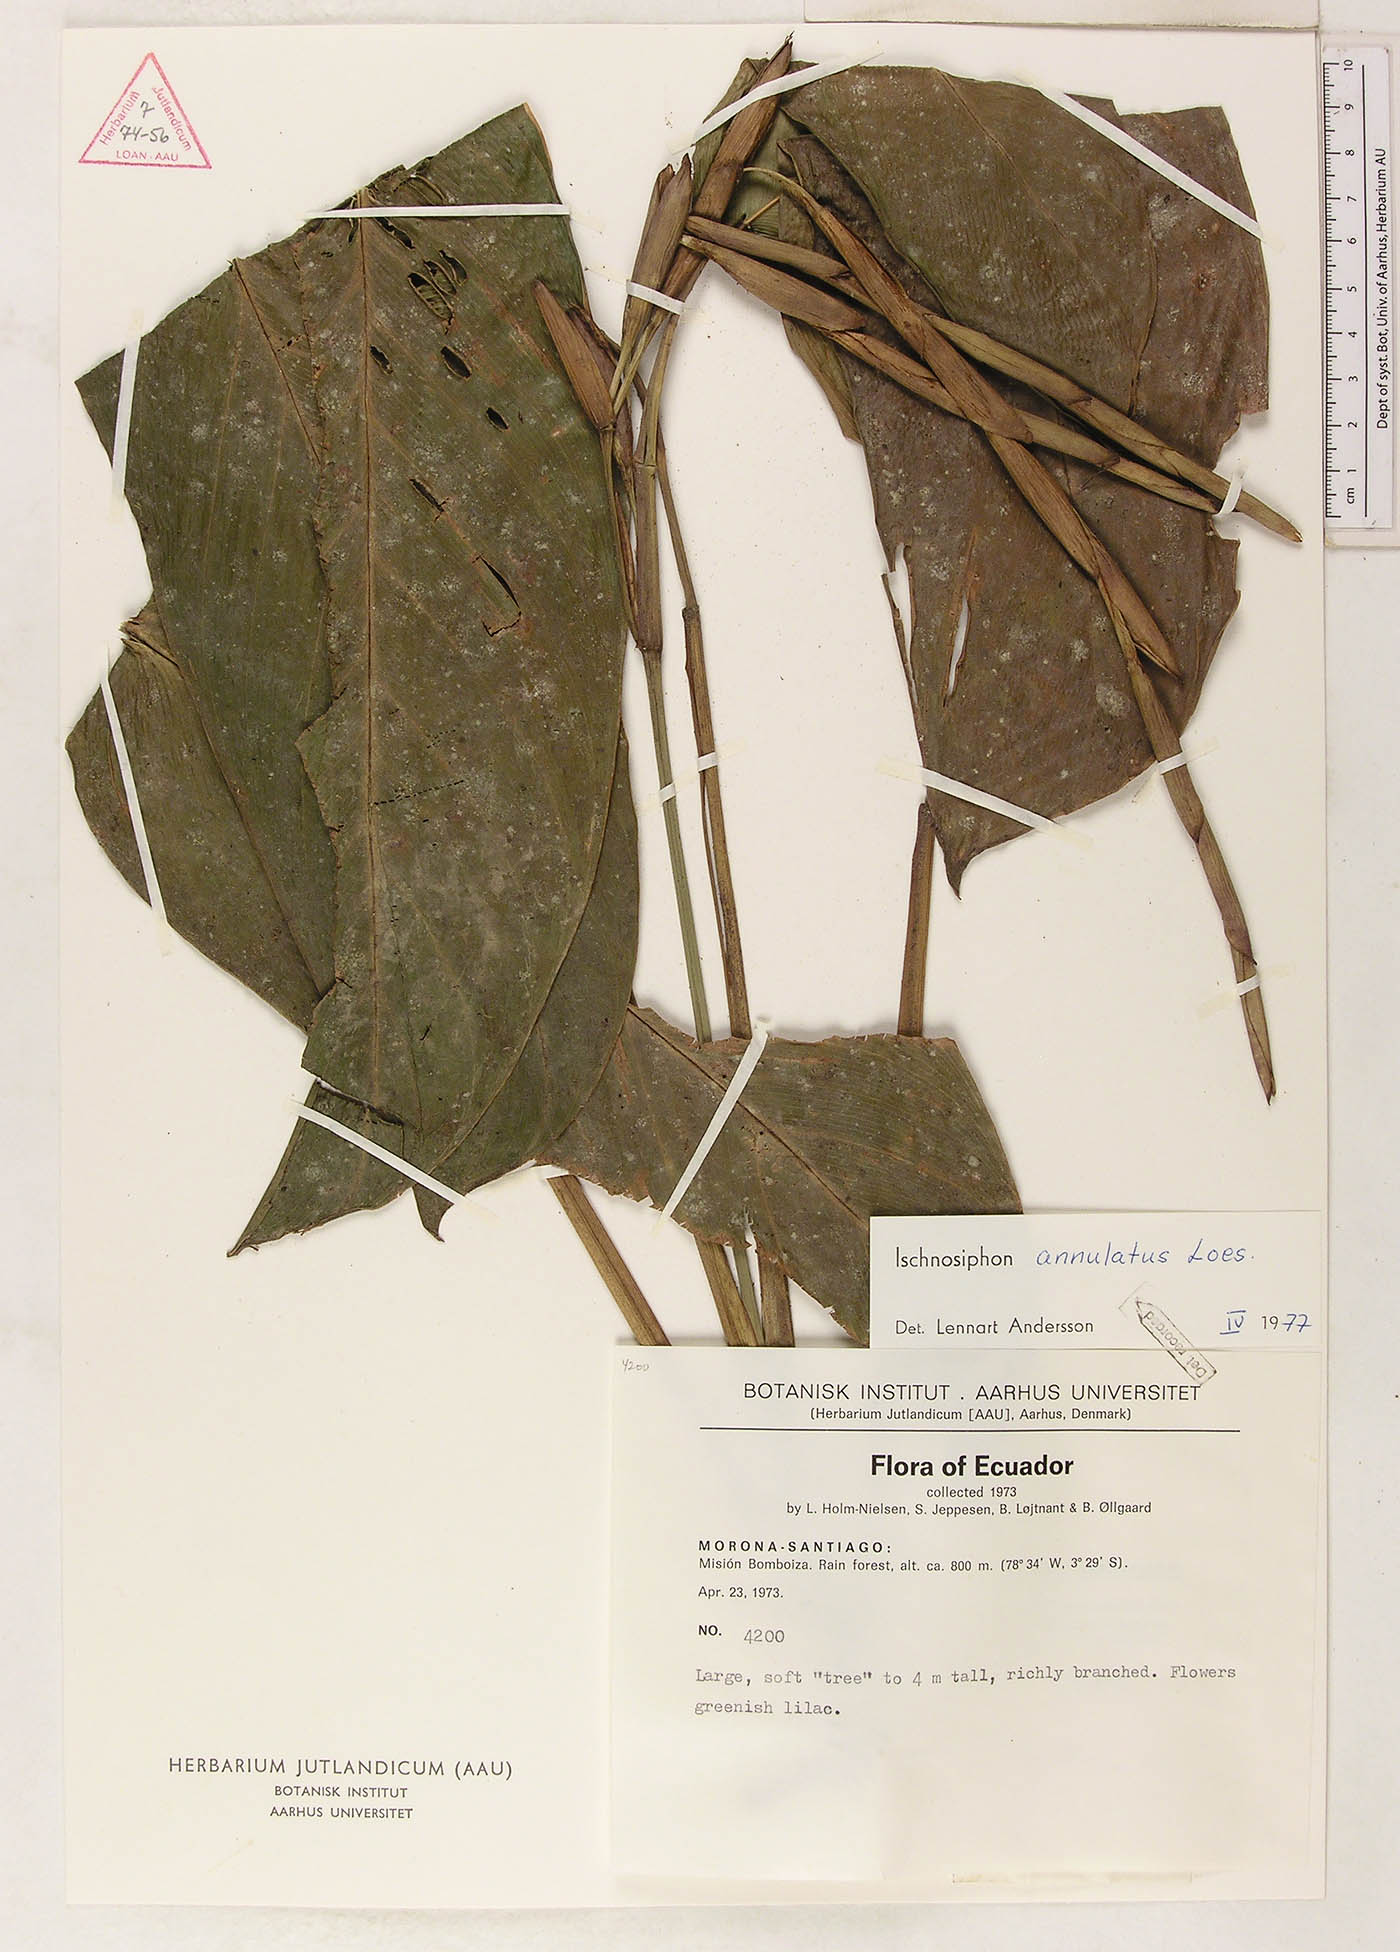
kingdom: Plantae
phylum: Tracheophyta
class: Liliopsida
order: Zingiberales
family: Marantaceae
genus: Ischnosiphon
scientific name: Ischnosiphon annulatus
